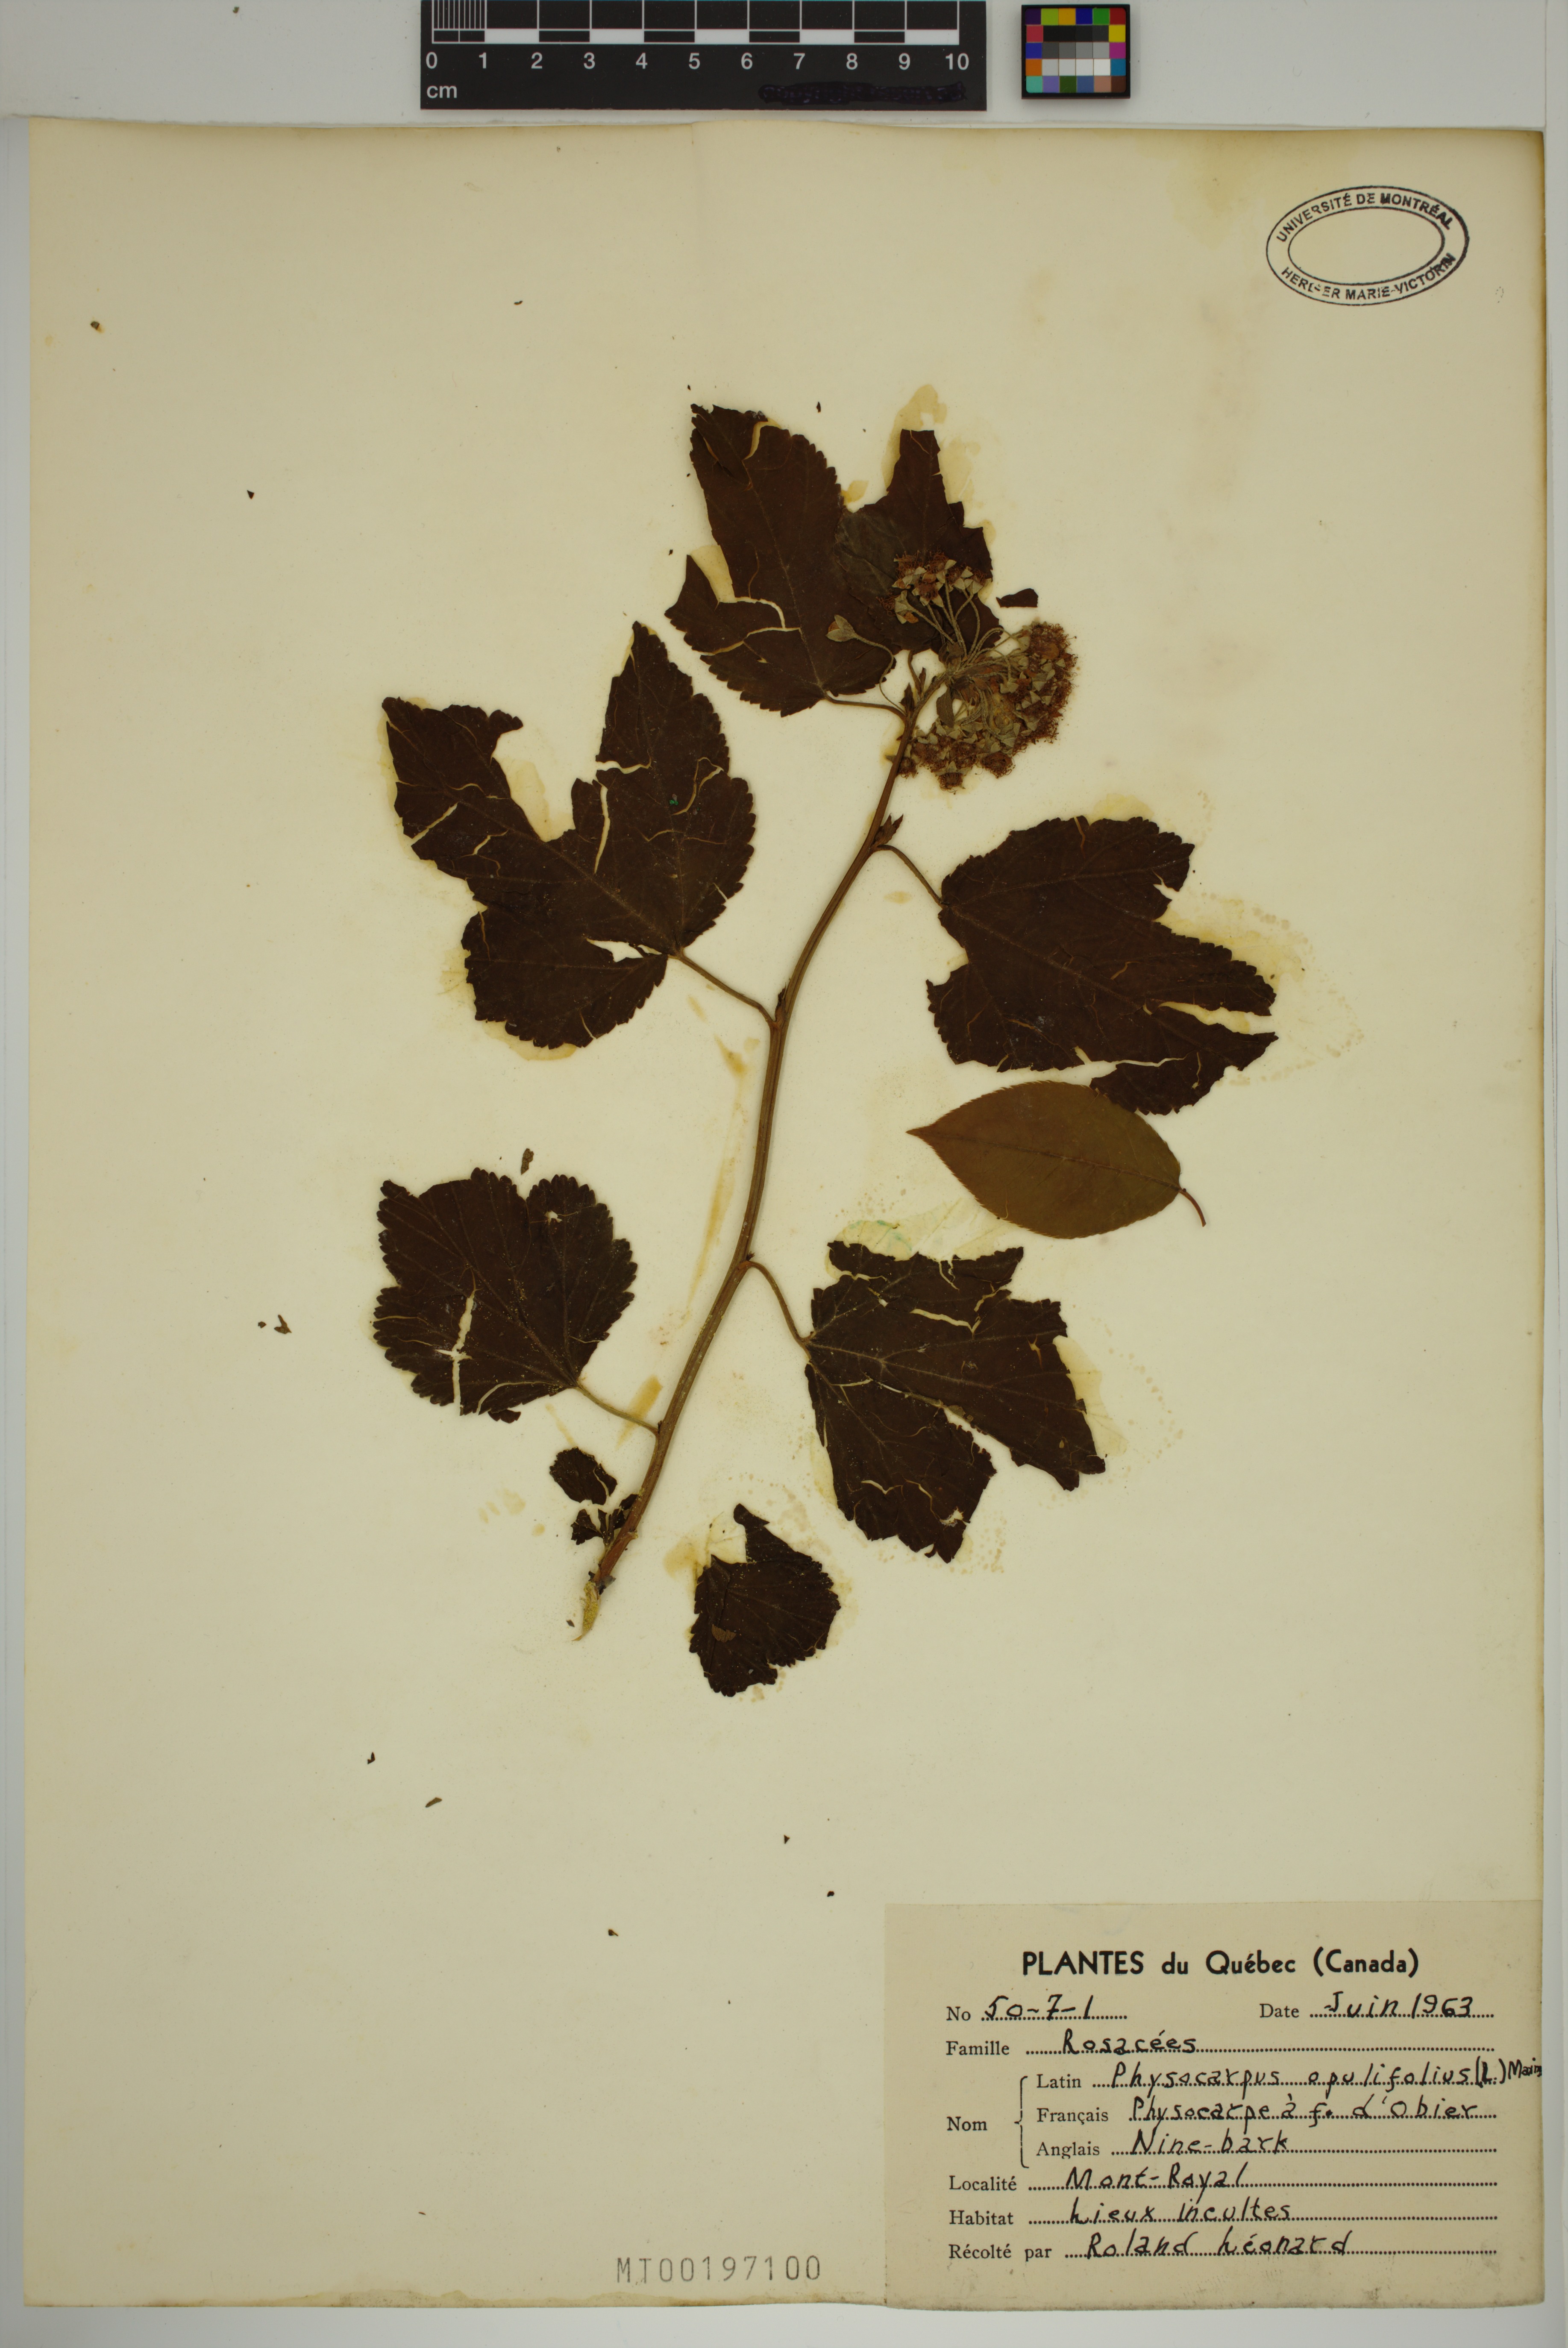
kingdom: Plantae
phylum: Tracheophyta
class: Magnoliopsida
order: Rosales
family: Rosaceae
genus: Physocarpus
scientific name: Physocarpus opulifolius
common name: Ninebark
